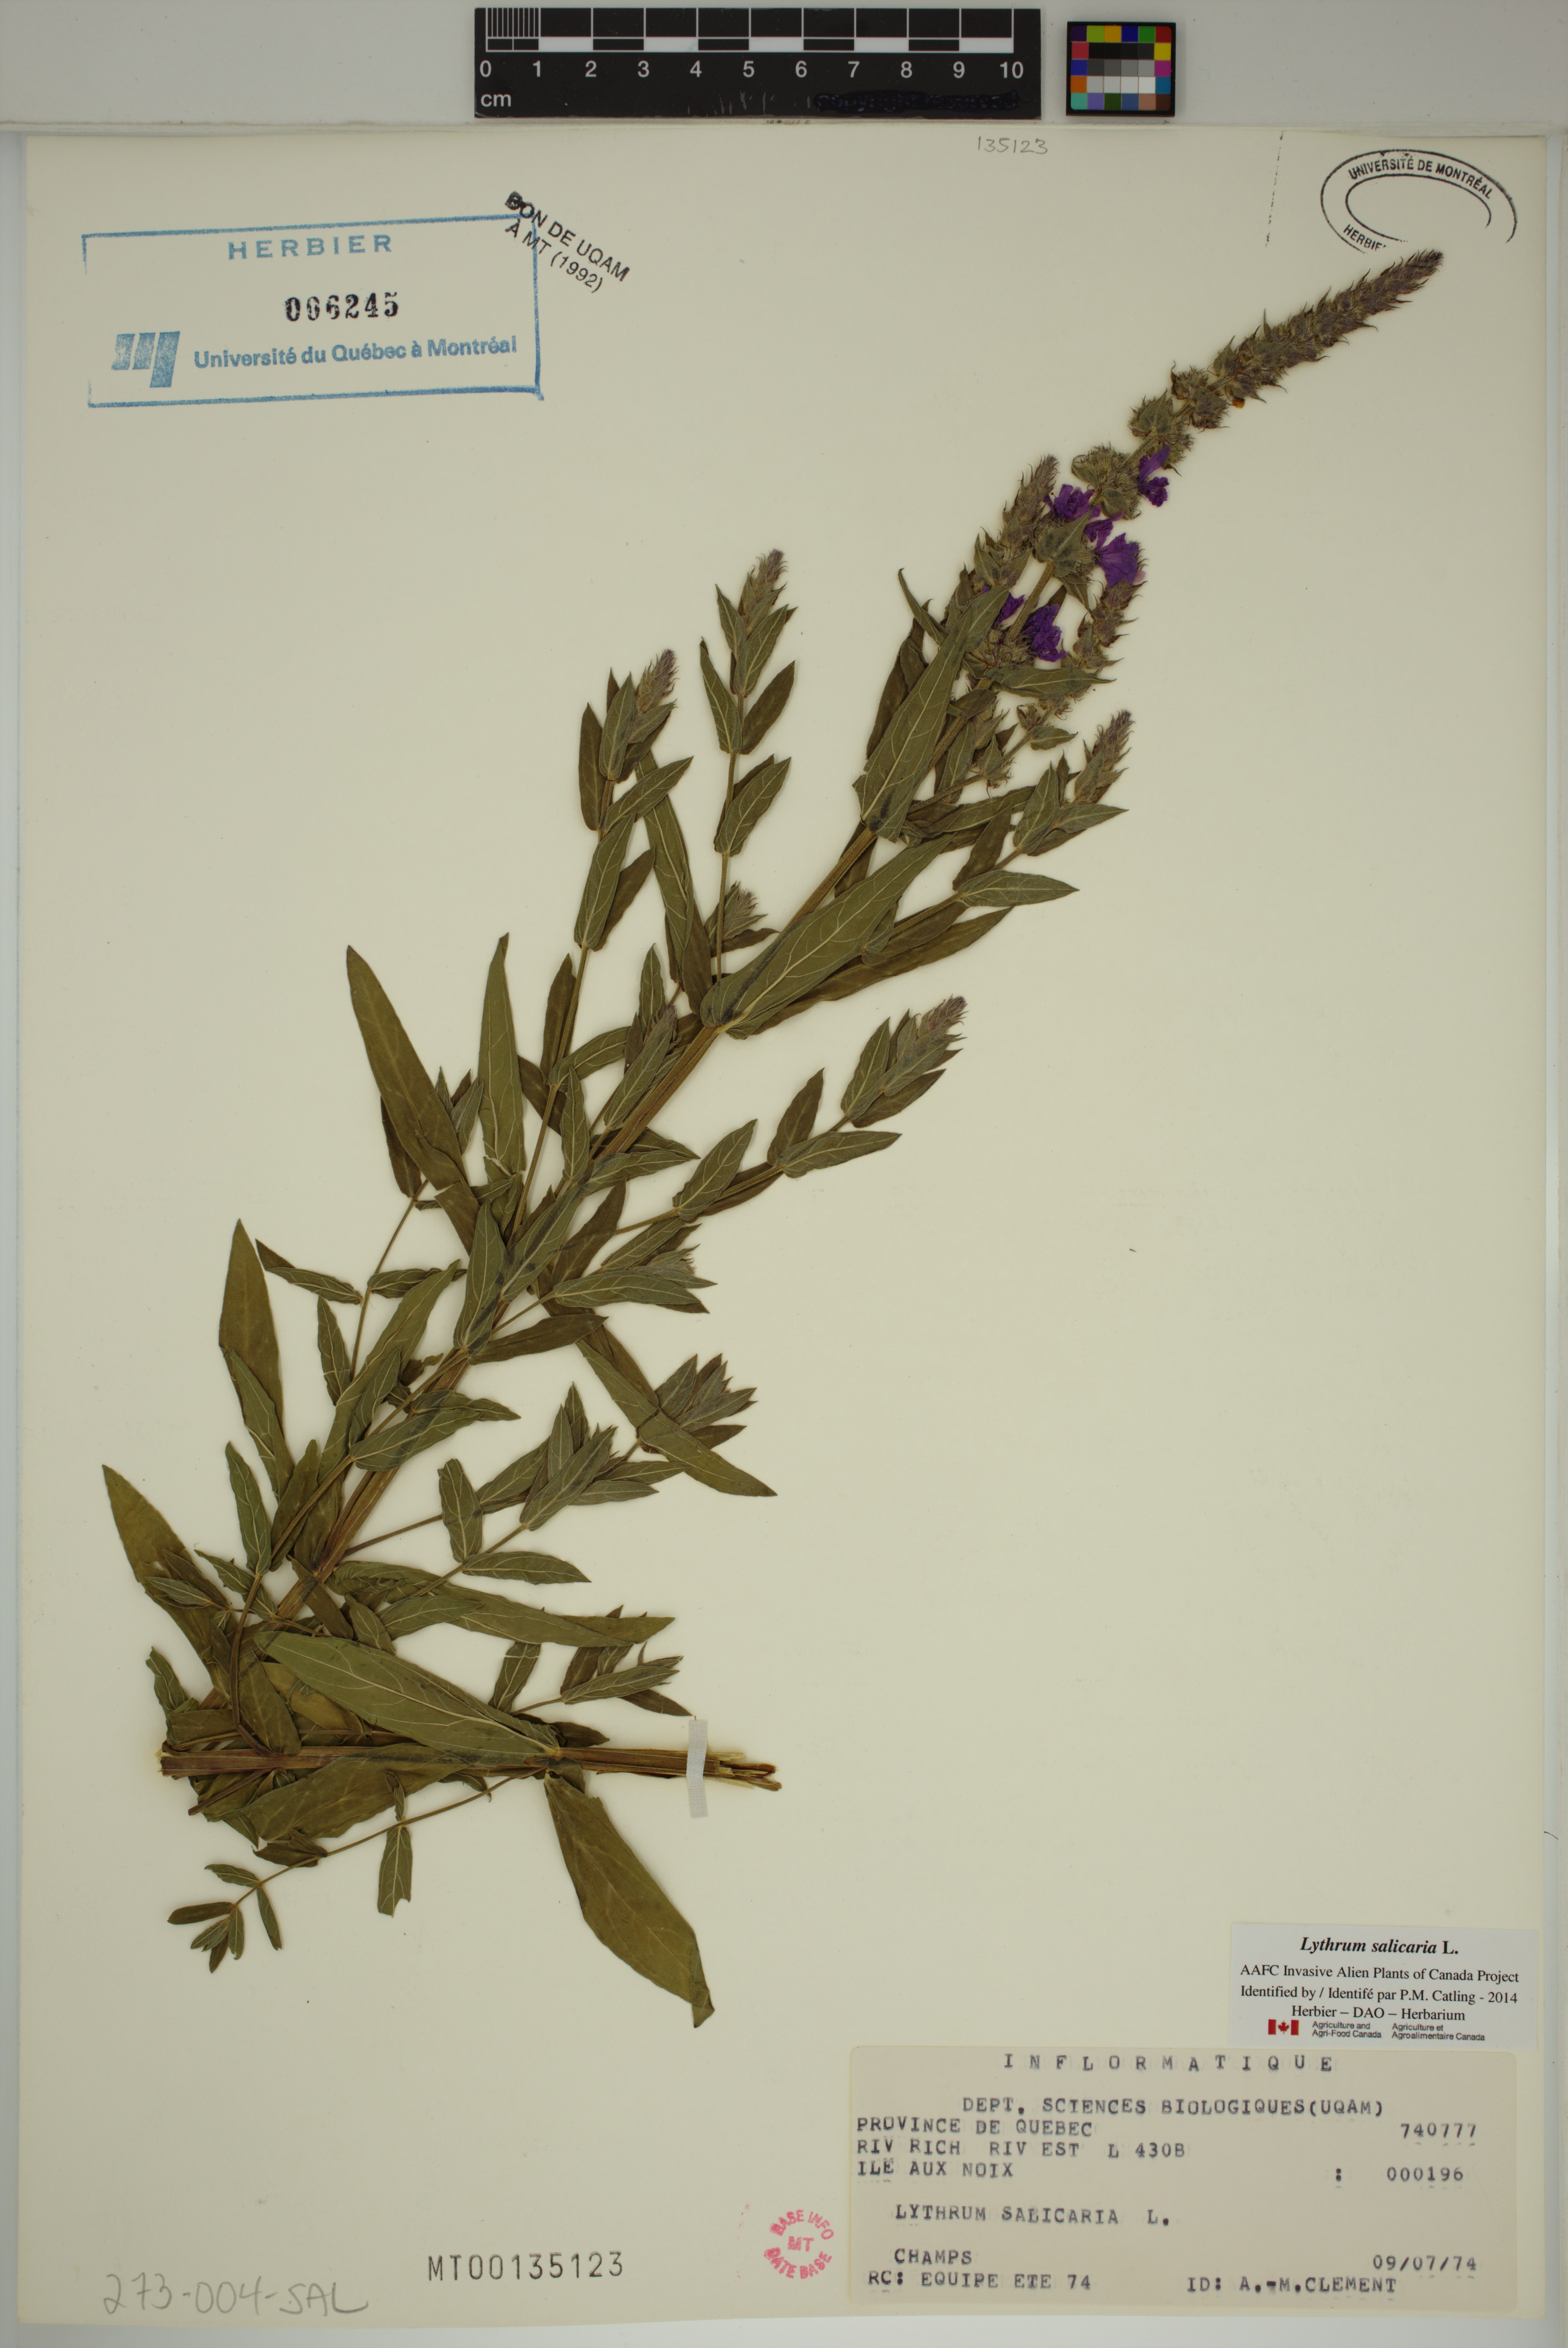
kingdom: Plantae
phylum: Tracheophyta
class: Magnoliopsida
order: Myrtales
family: Lythraceae
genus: Lythrum
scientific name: Lythrum salicaria
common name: Purple loosestrife
